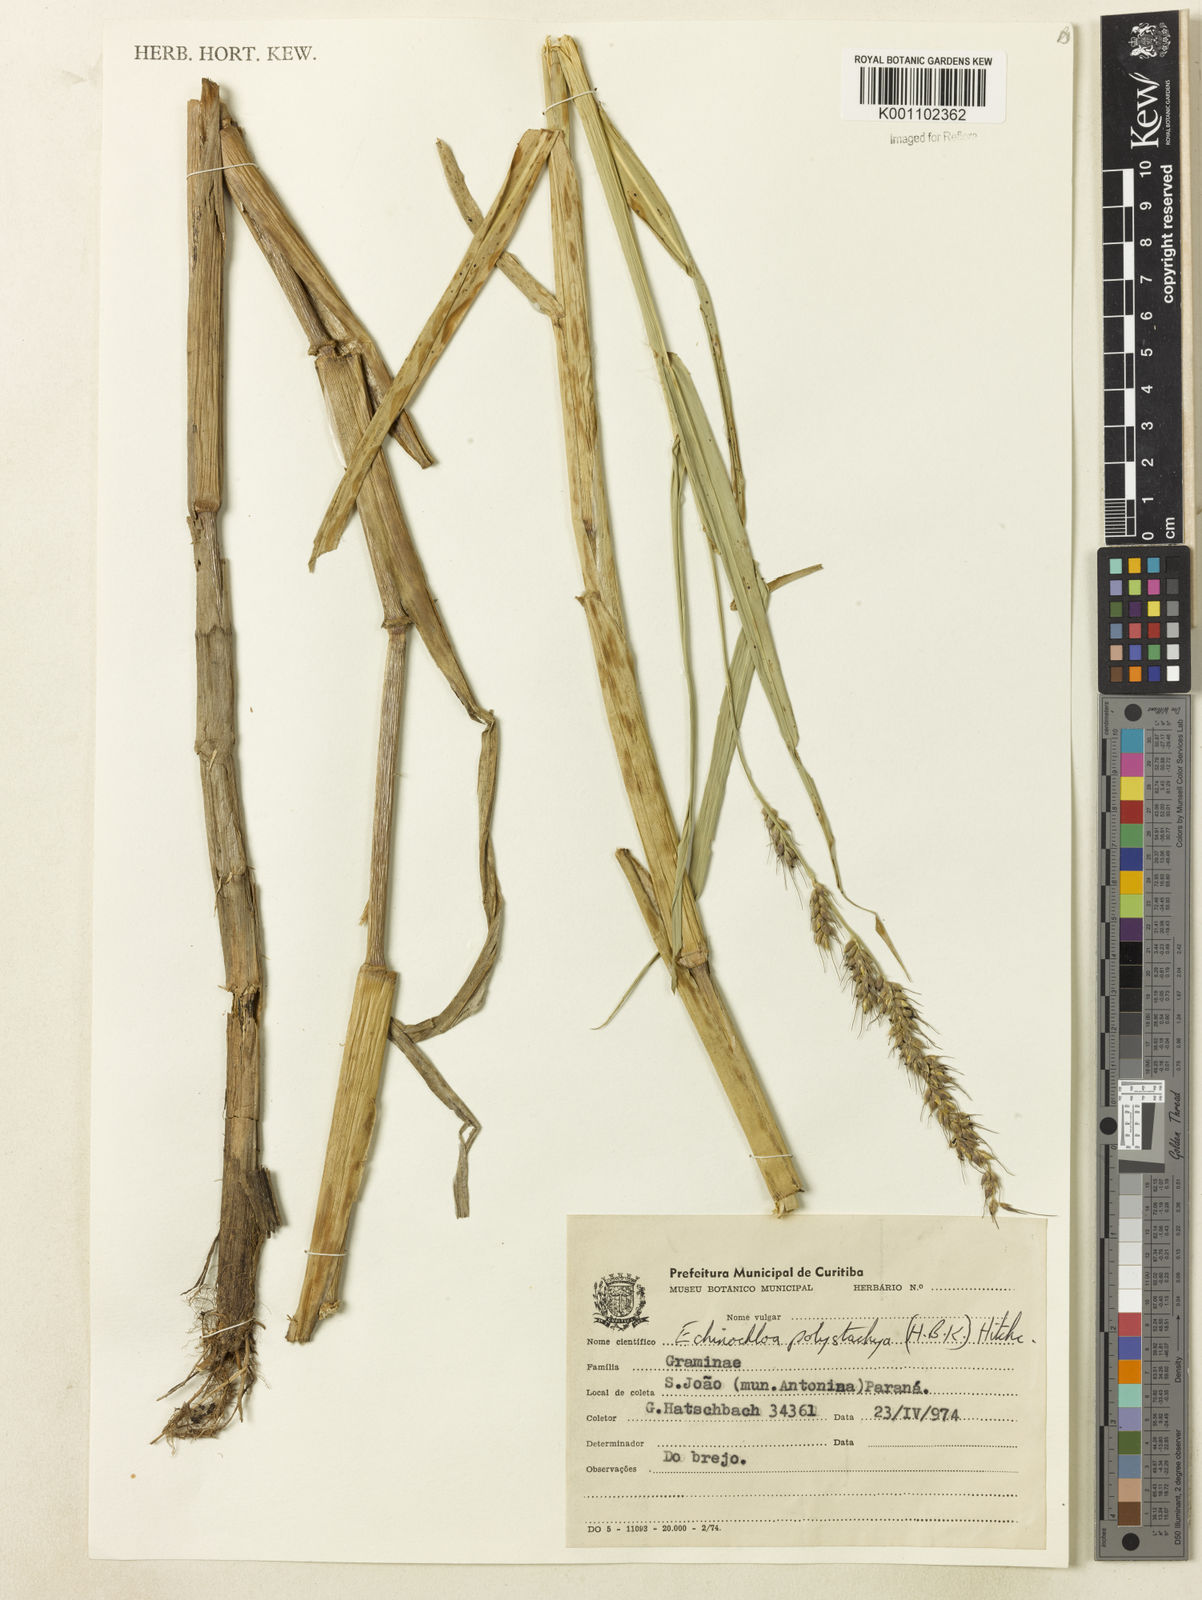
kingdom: Plantae
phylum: Tracheophyta
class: Liliopsida
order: Poales
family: Poaceae
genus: Echinochloa
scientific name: Echinochloa polystachya
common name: Creeping river grass
